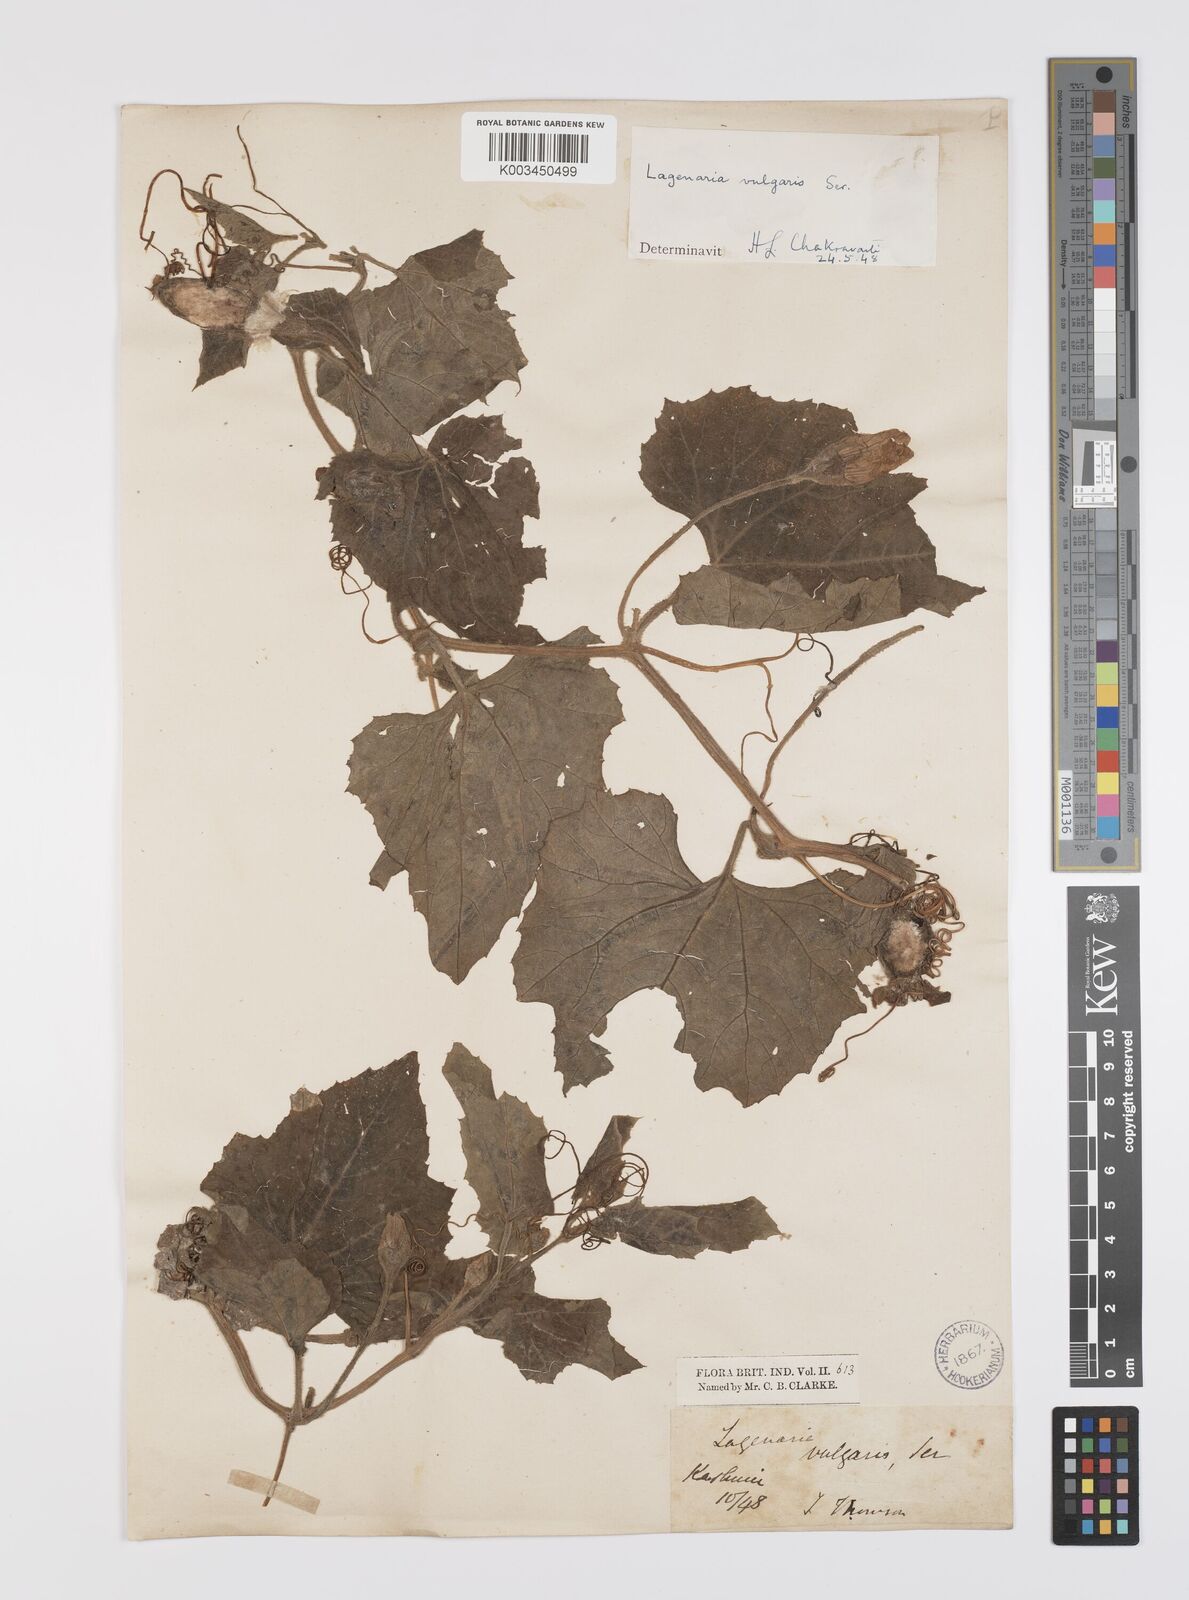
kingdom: Plantae
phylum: Tracheophyta
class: Magnoliopsida
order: Cucurbitales
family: Cucurbitaceae
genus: Lagenaria
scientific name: Lagenaria siceraria
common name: Bottle gourd
